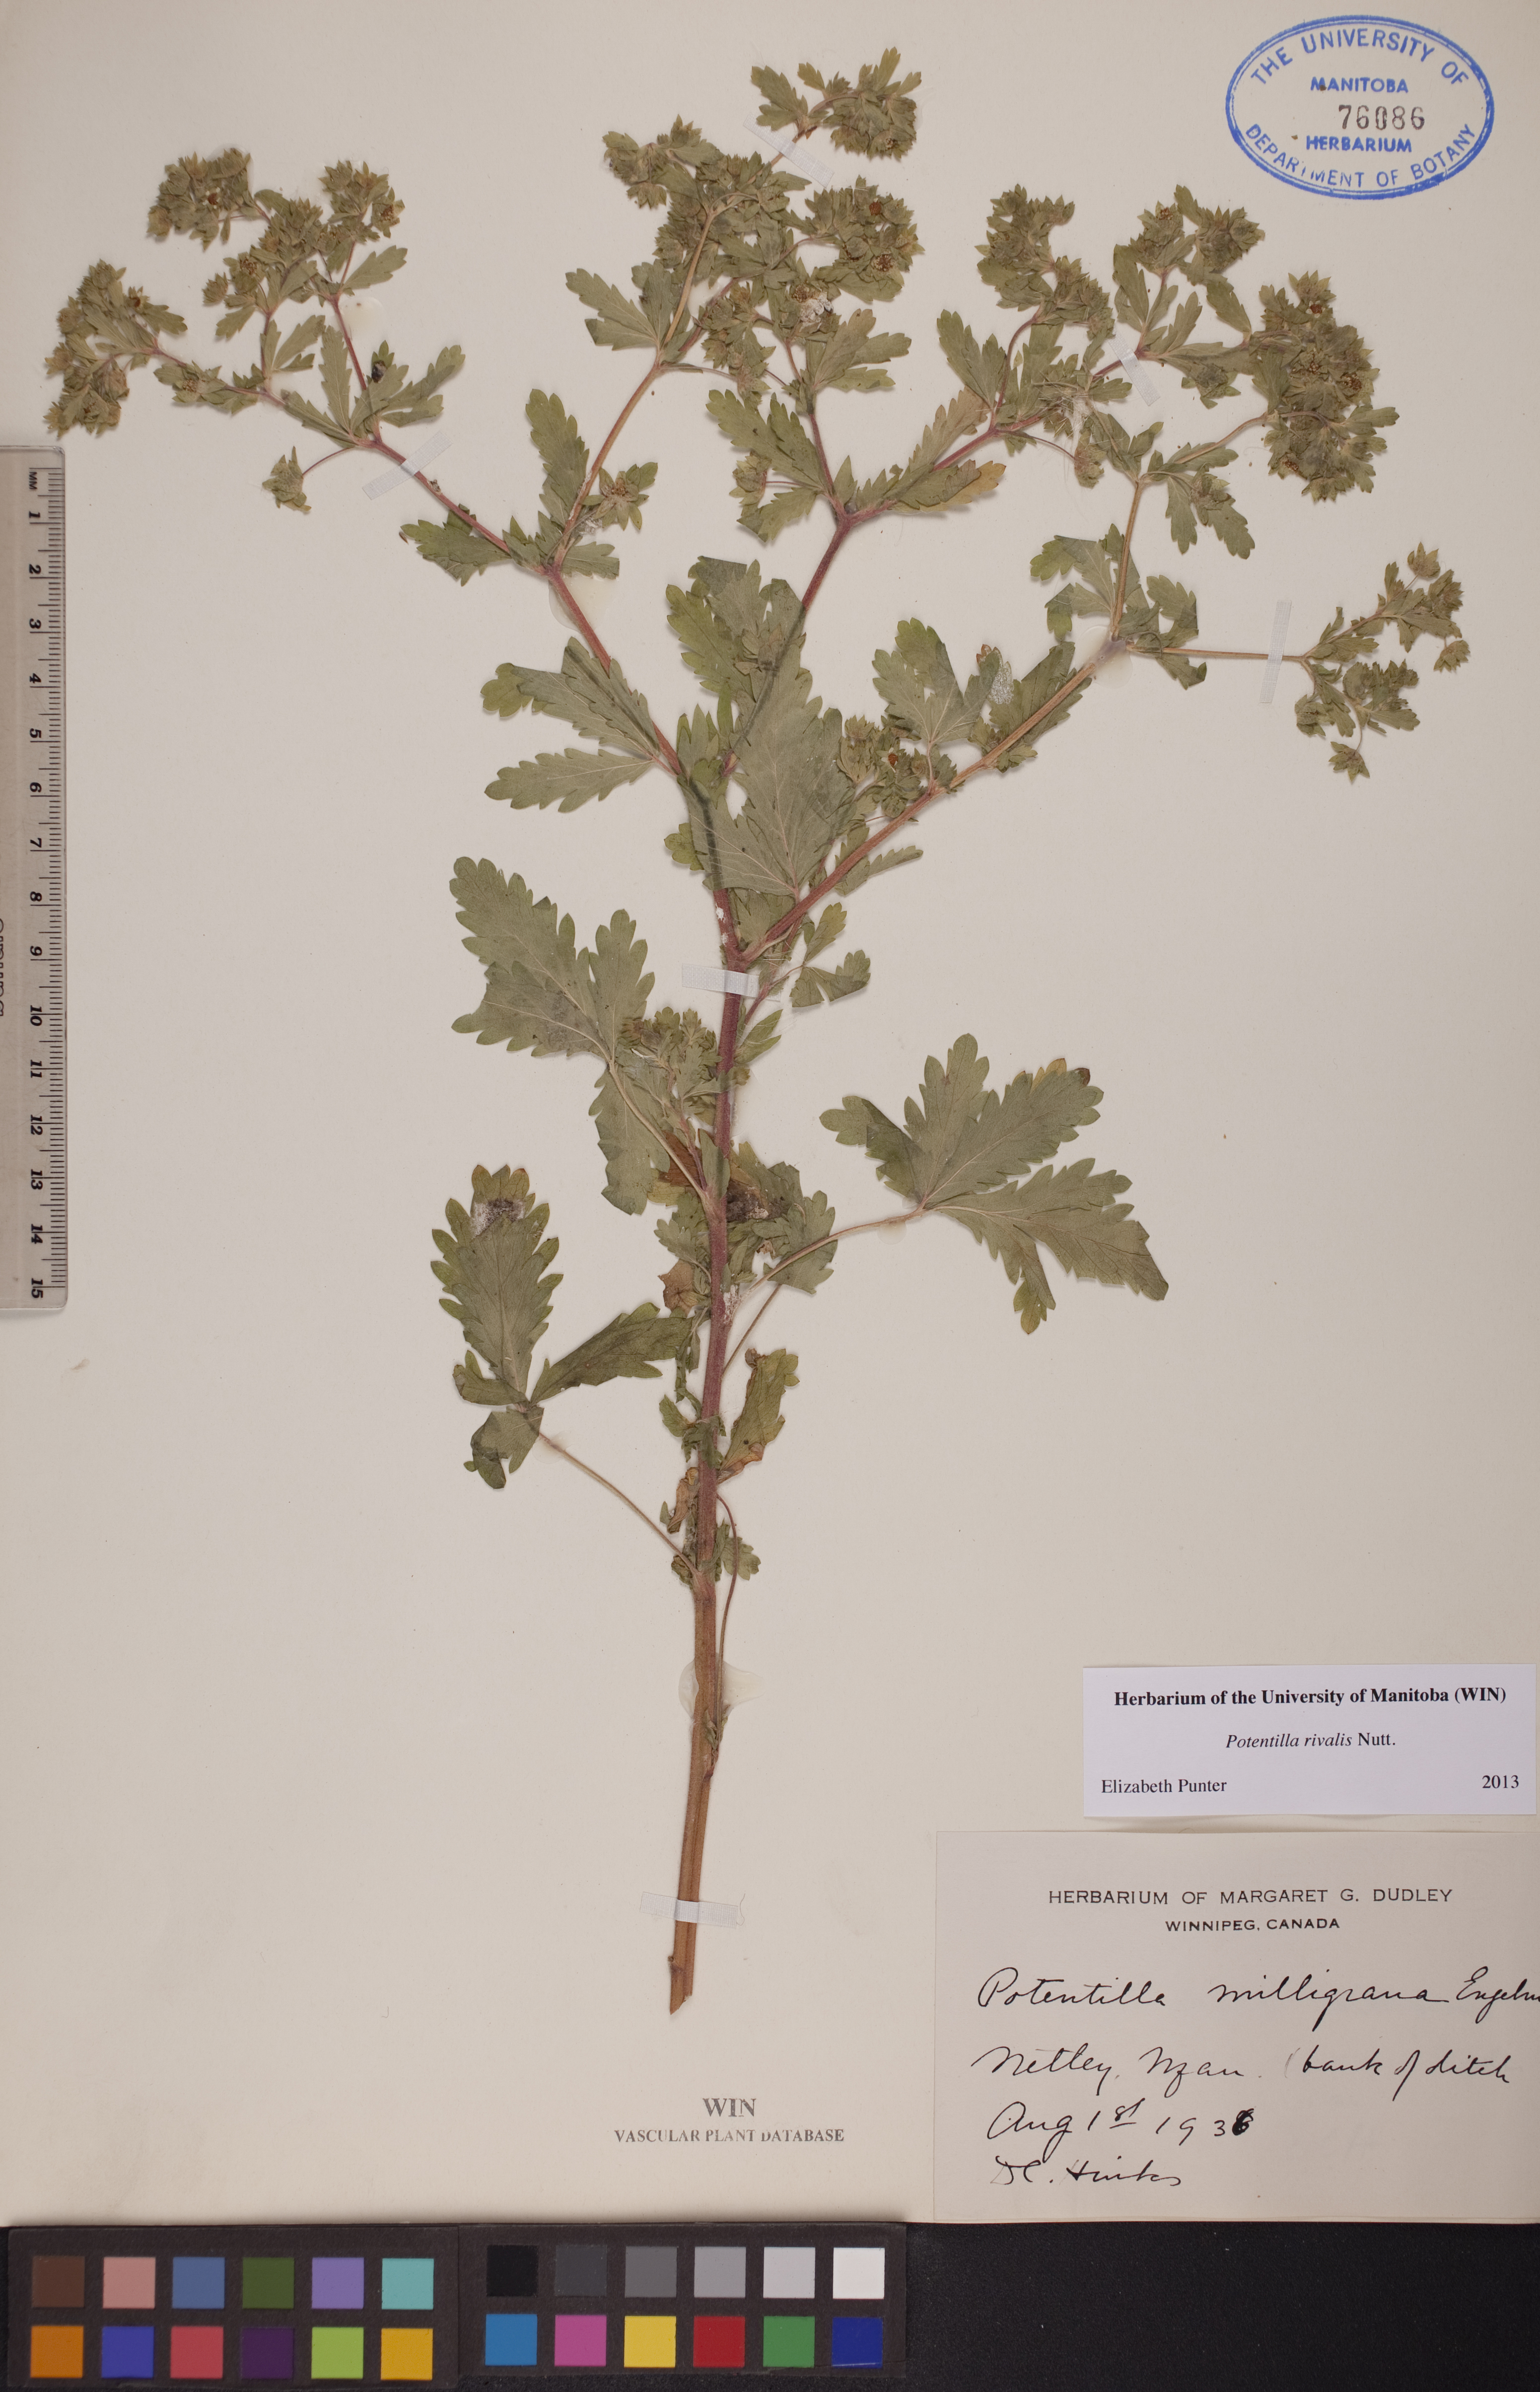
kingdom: Plantae
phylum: Tracheophyta
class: Magnoliopsida
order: Rosales
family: Rosaceae
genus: Potentilla
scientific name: Potentilla rivalis
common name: Brook cinquefoil
